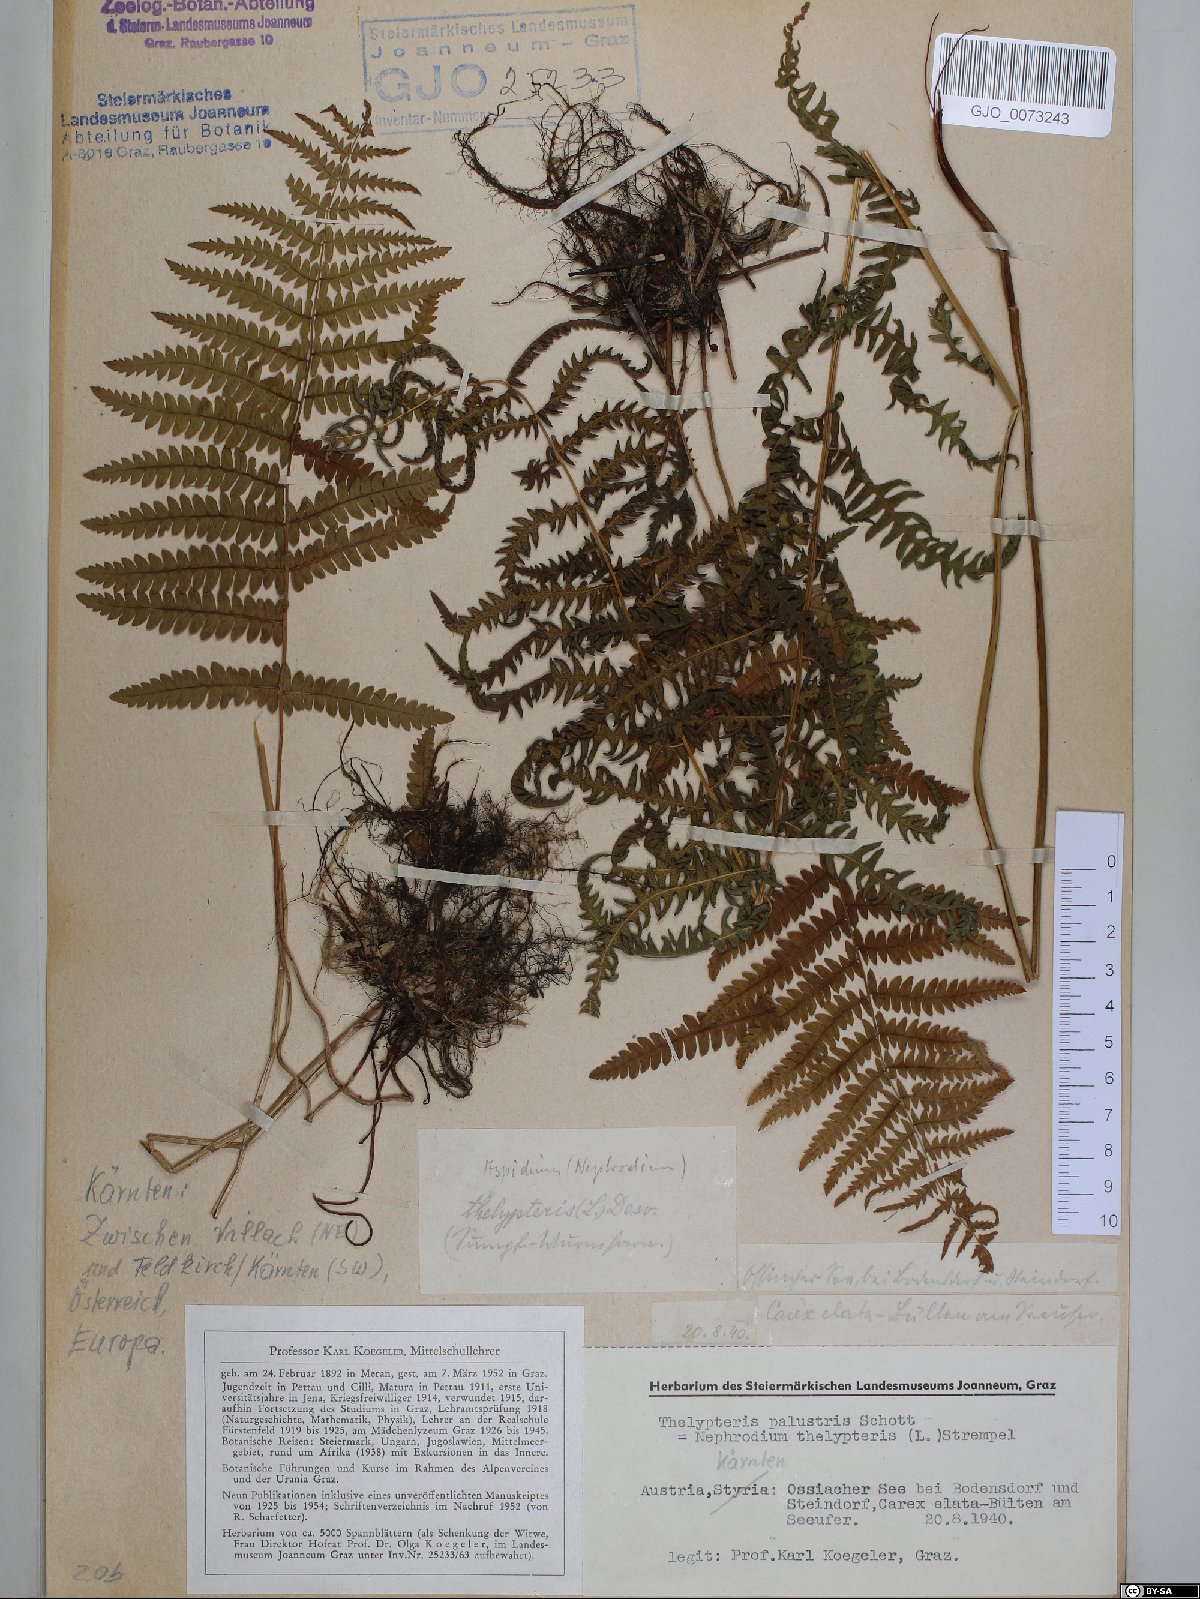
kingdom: Plantae
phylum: Tracheophyta
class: Polypodiopsida
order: Polypodiales
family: Thelypteridaceae
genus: Thelypteris
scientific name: Thelypteris palustris
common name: Marsh fern
